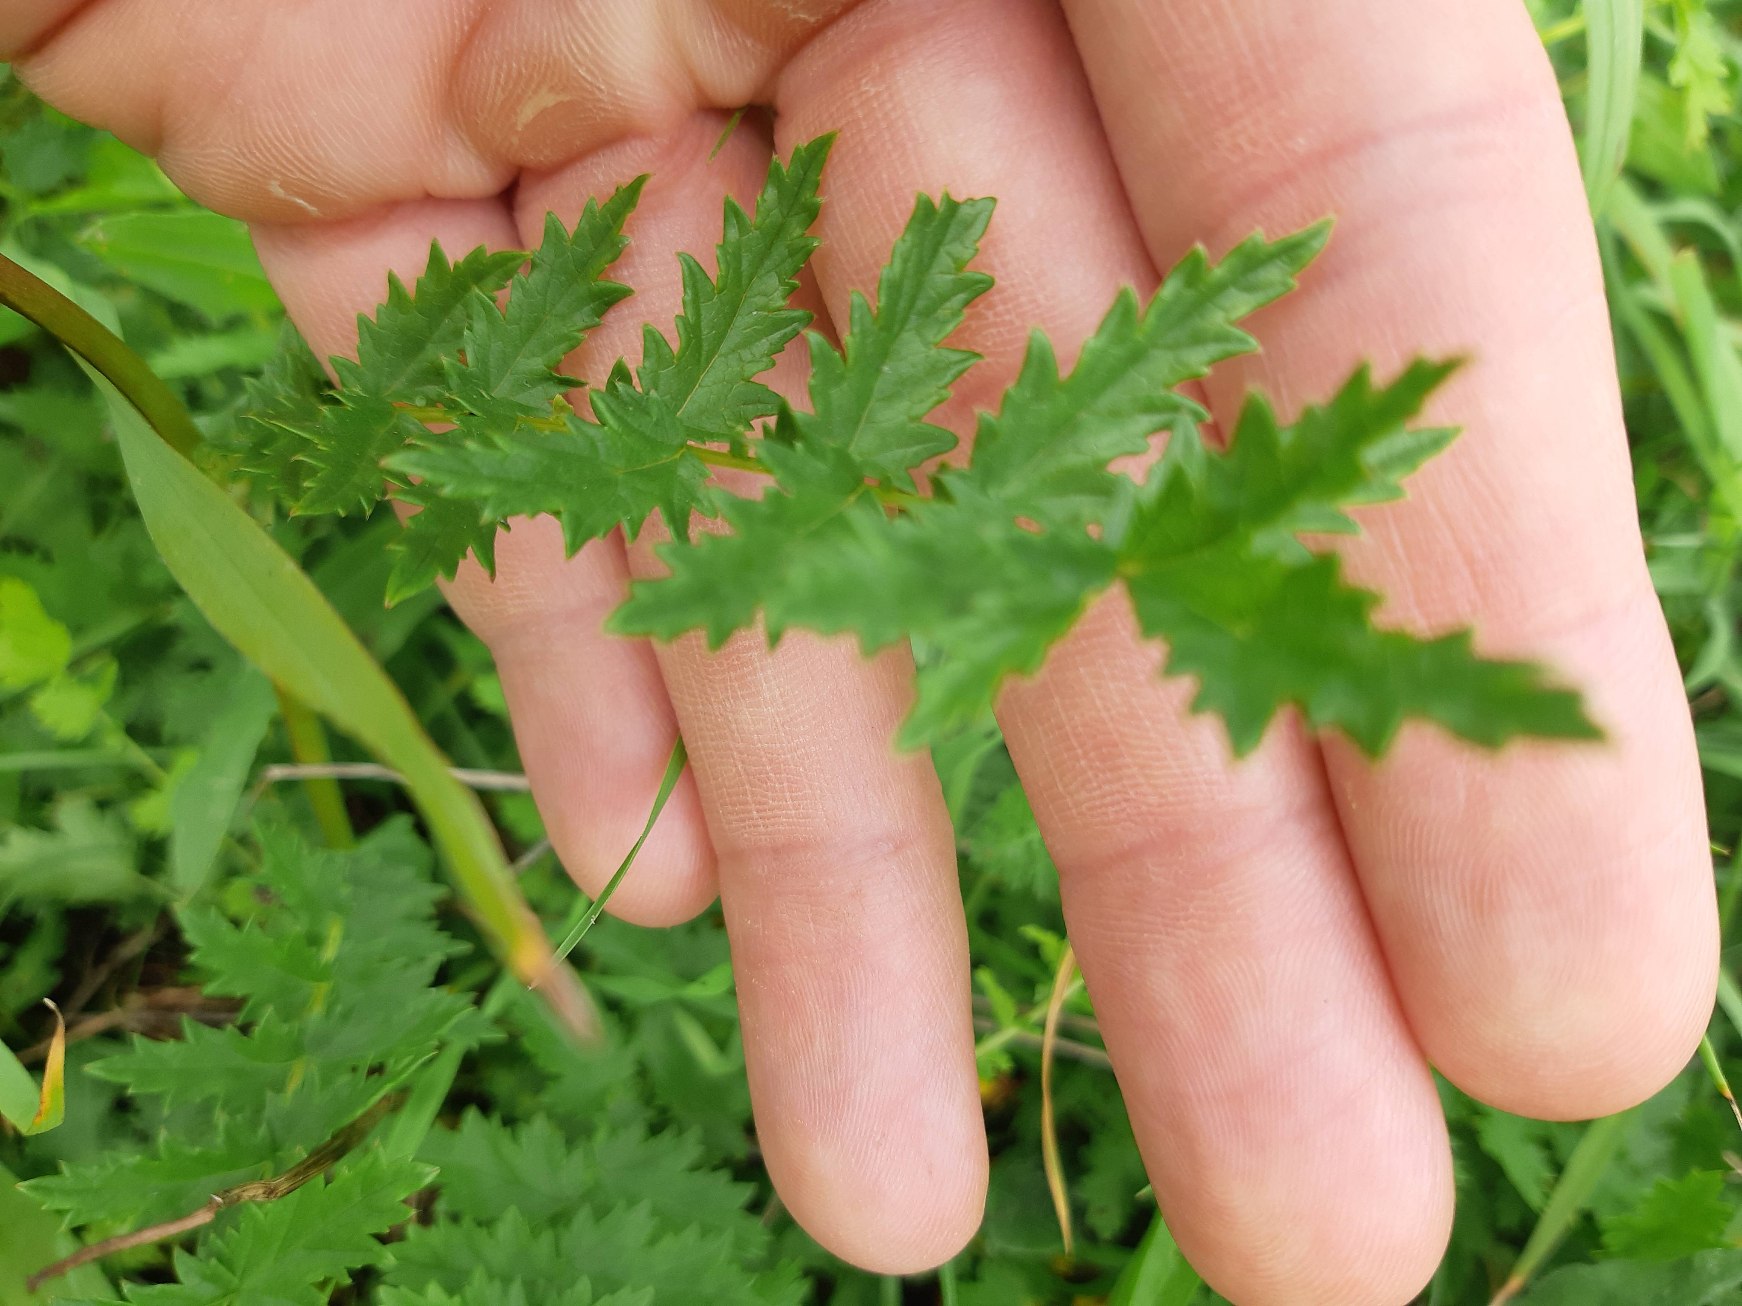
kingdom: Plantae
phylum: Tracheophyta
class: Magnoliopsida
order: Rosales
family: Rosaceae
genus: Filipendula
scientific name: Filipendula vulgaris
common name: Knoldet mjødurt
